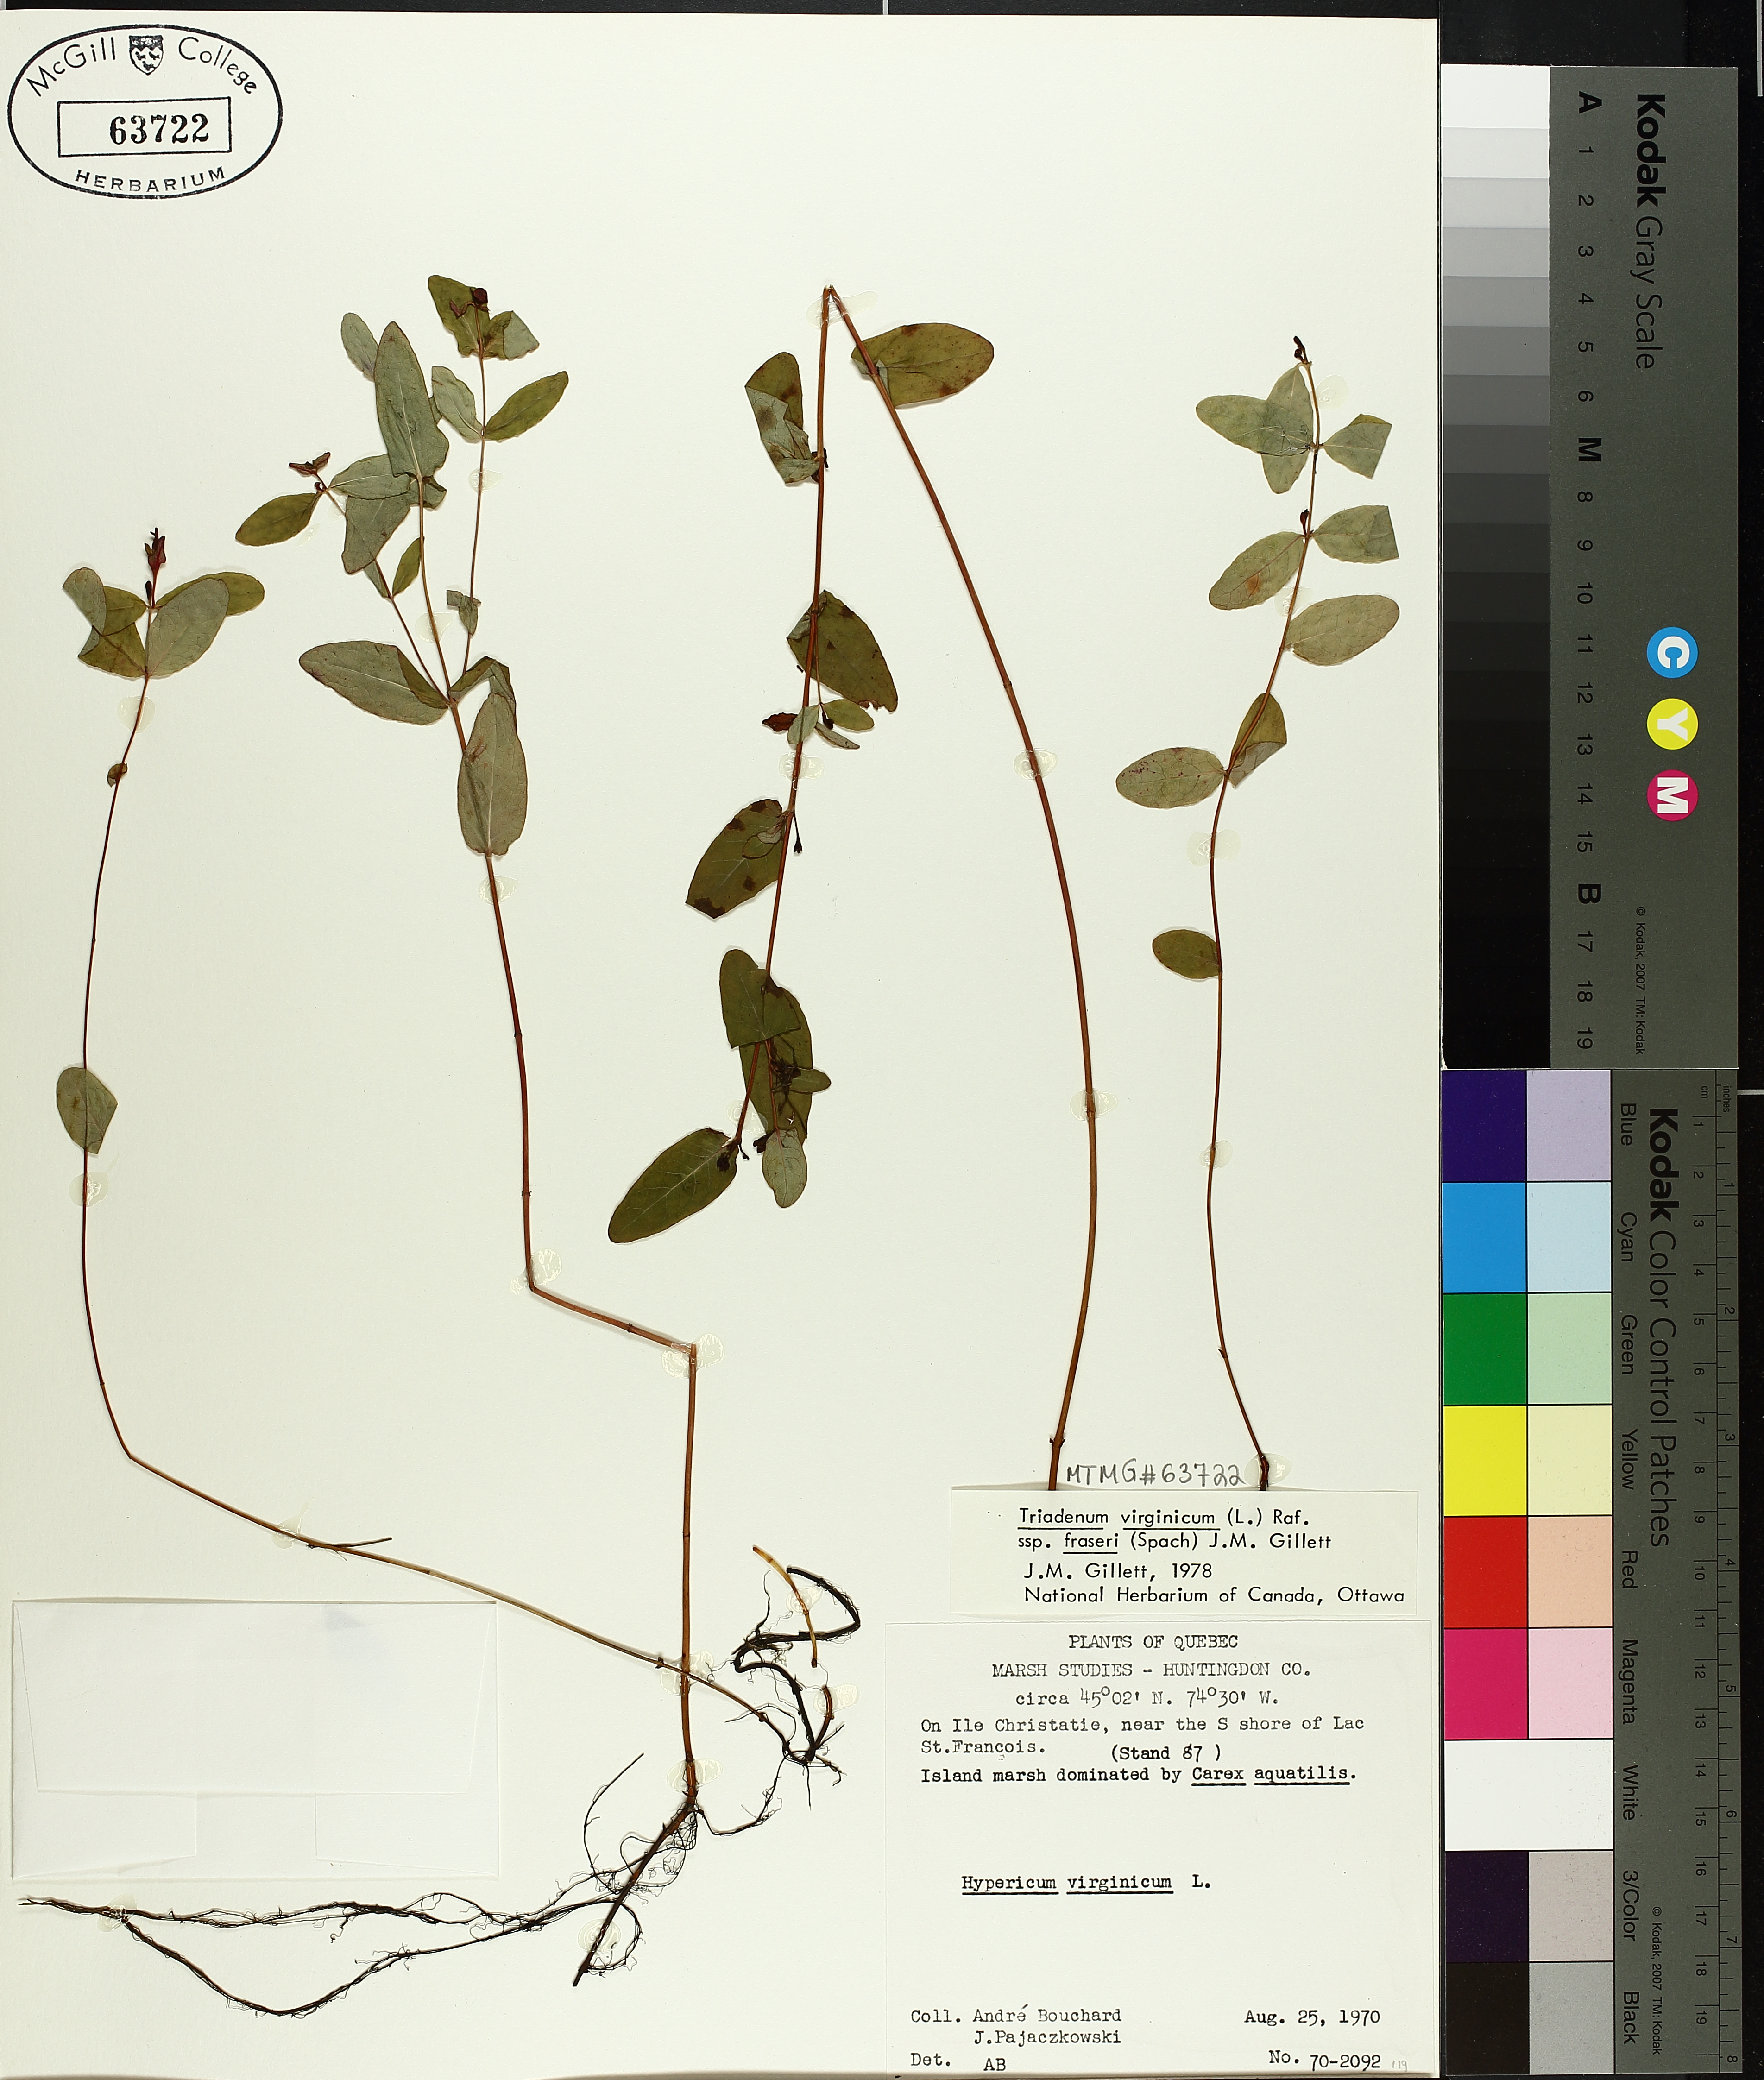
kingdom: Plantae
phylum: Tracheophyta
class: Magnoliopsida
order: Malpighiales
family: Hypericaceae
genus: Triadenum
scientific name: Triadenum fraseri
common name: Fraser's marsh st. johnswort
